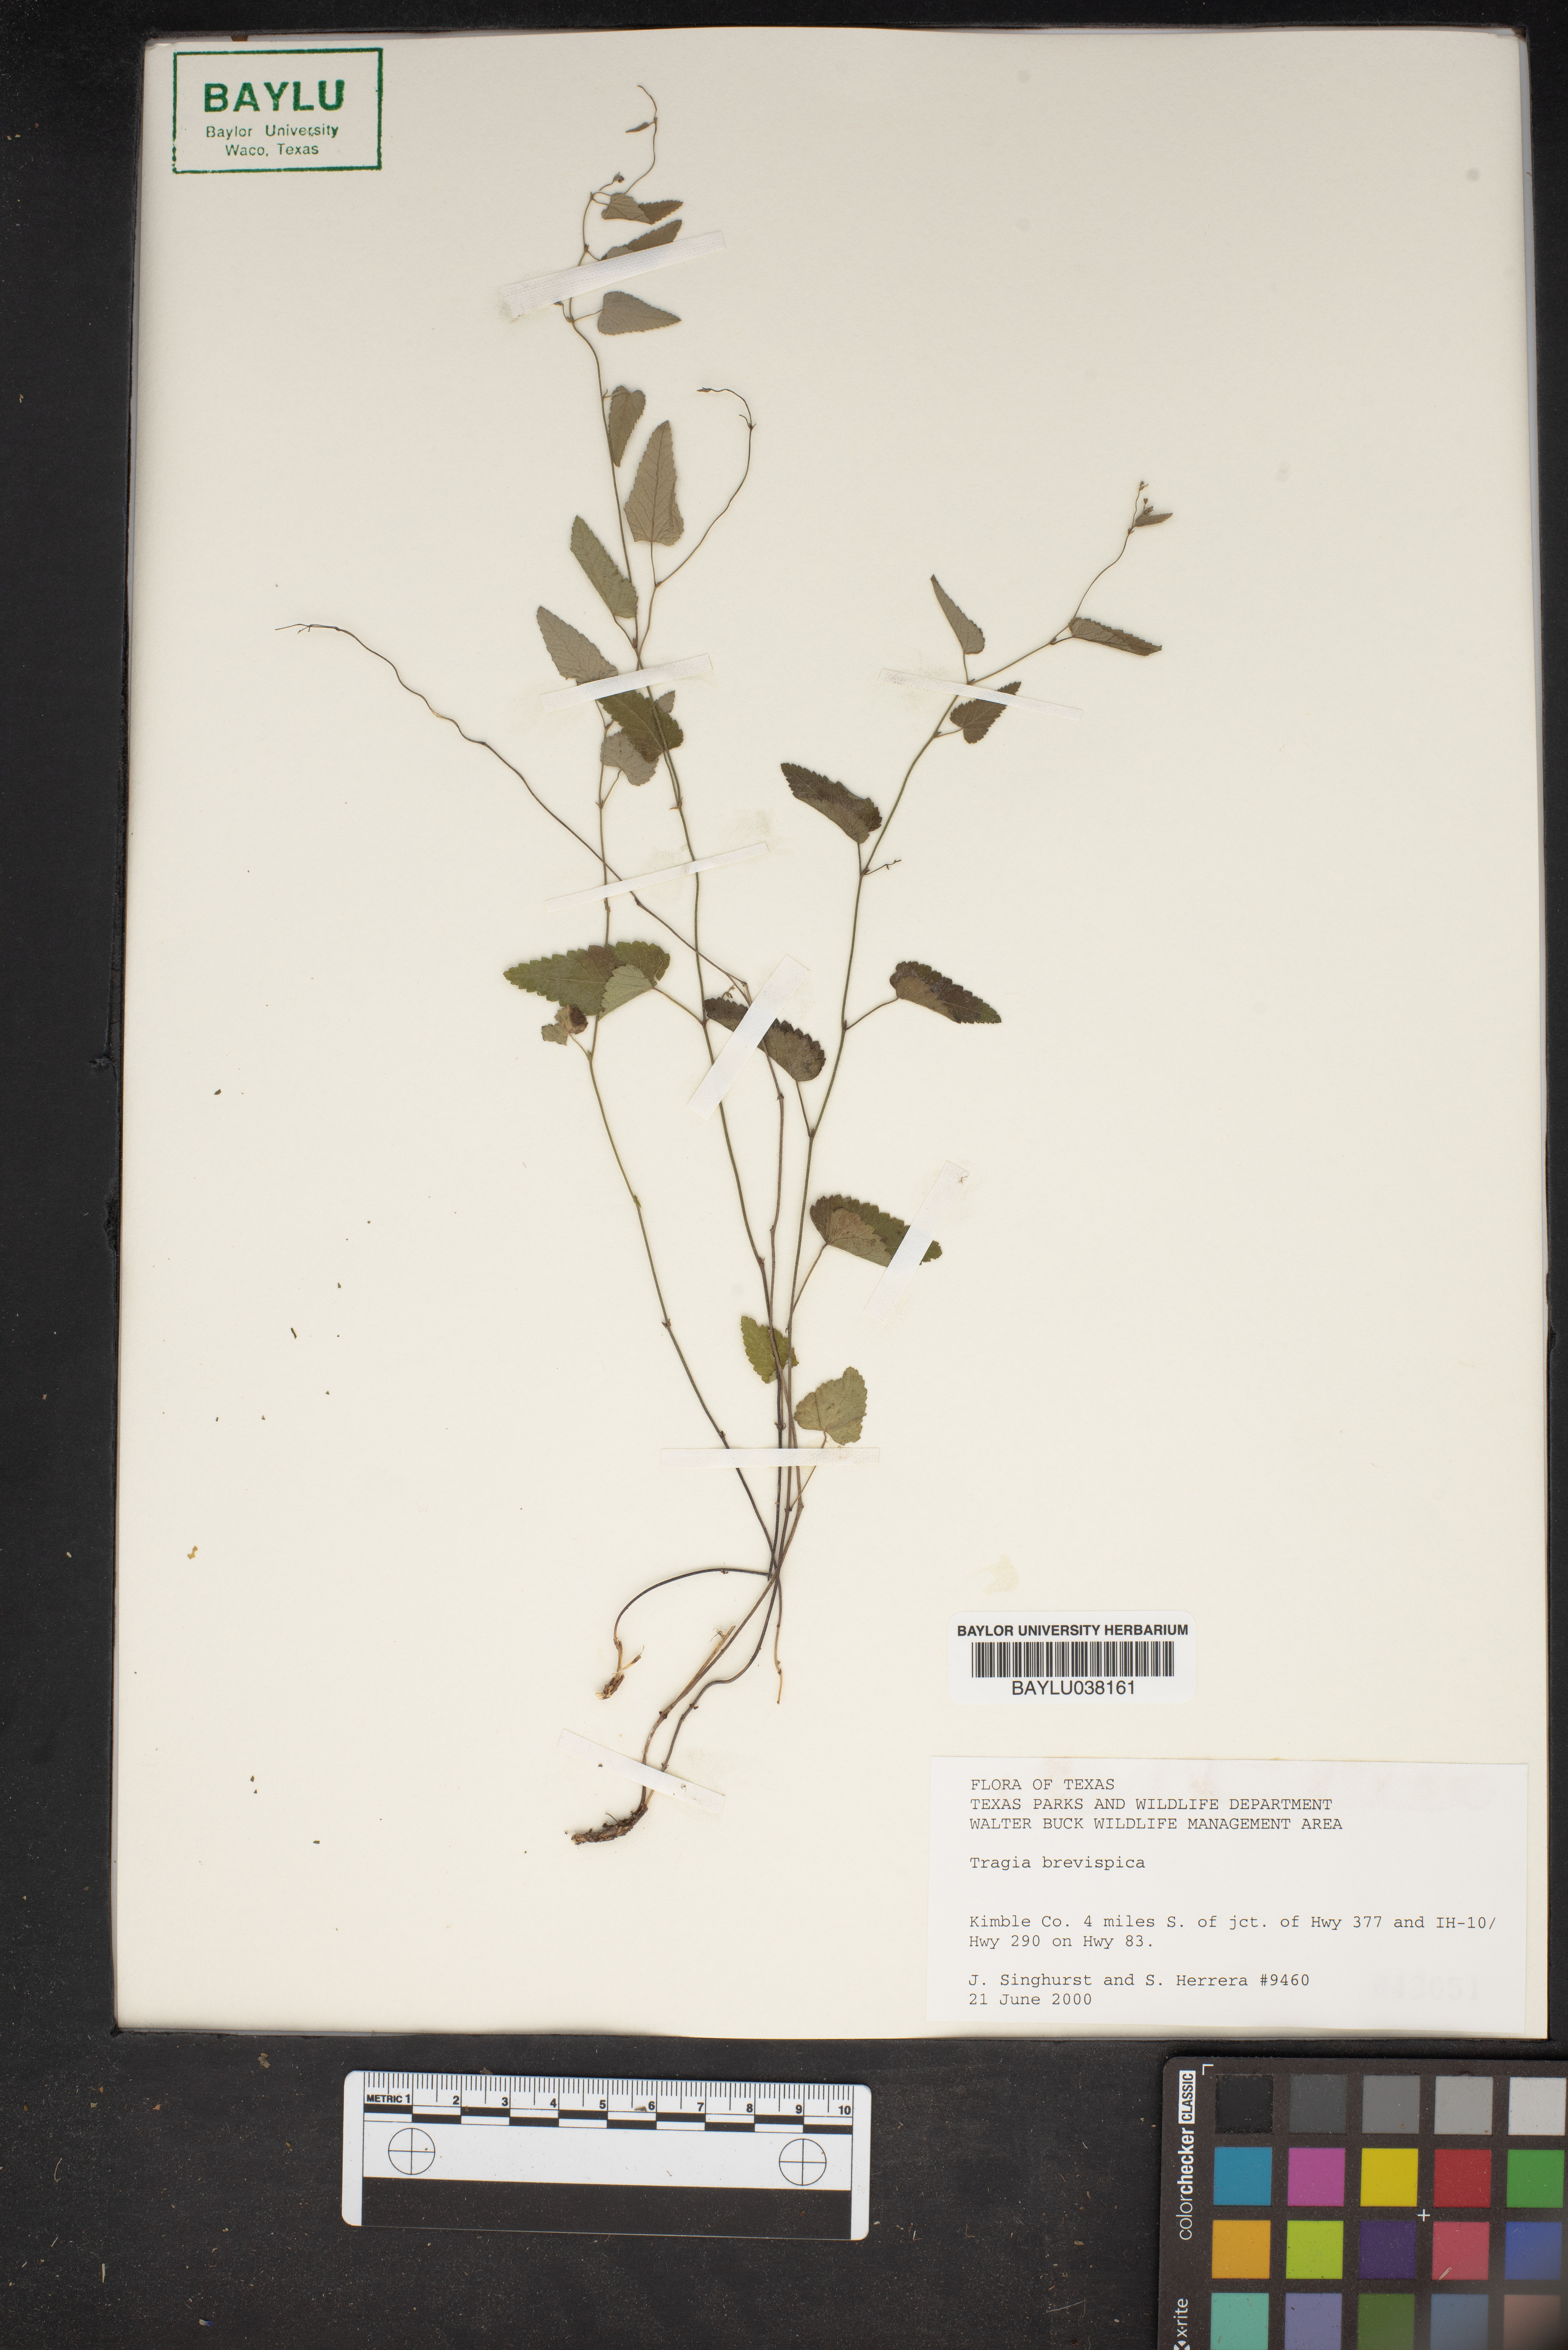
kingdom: Plantae
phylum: Tracheophyta
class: Magnoliopsida
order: Malpighiales
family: Euphorbiaceae
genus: Tragia
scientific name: Tragia brevispica
